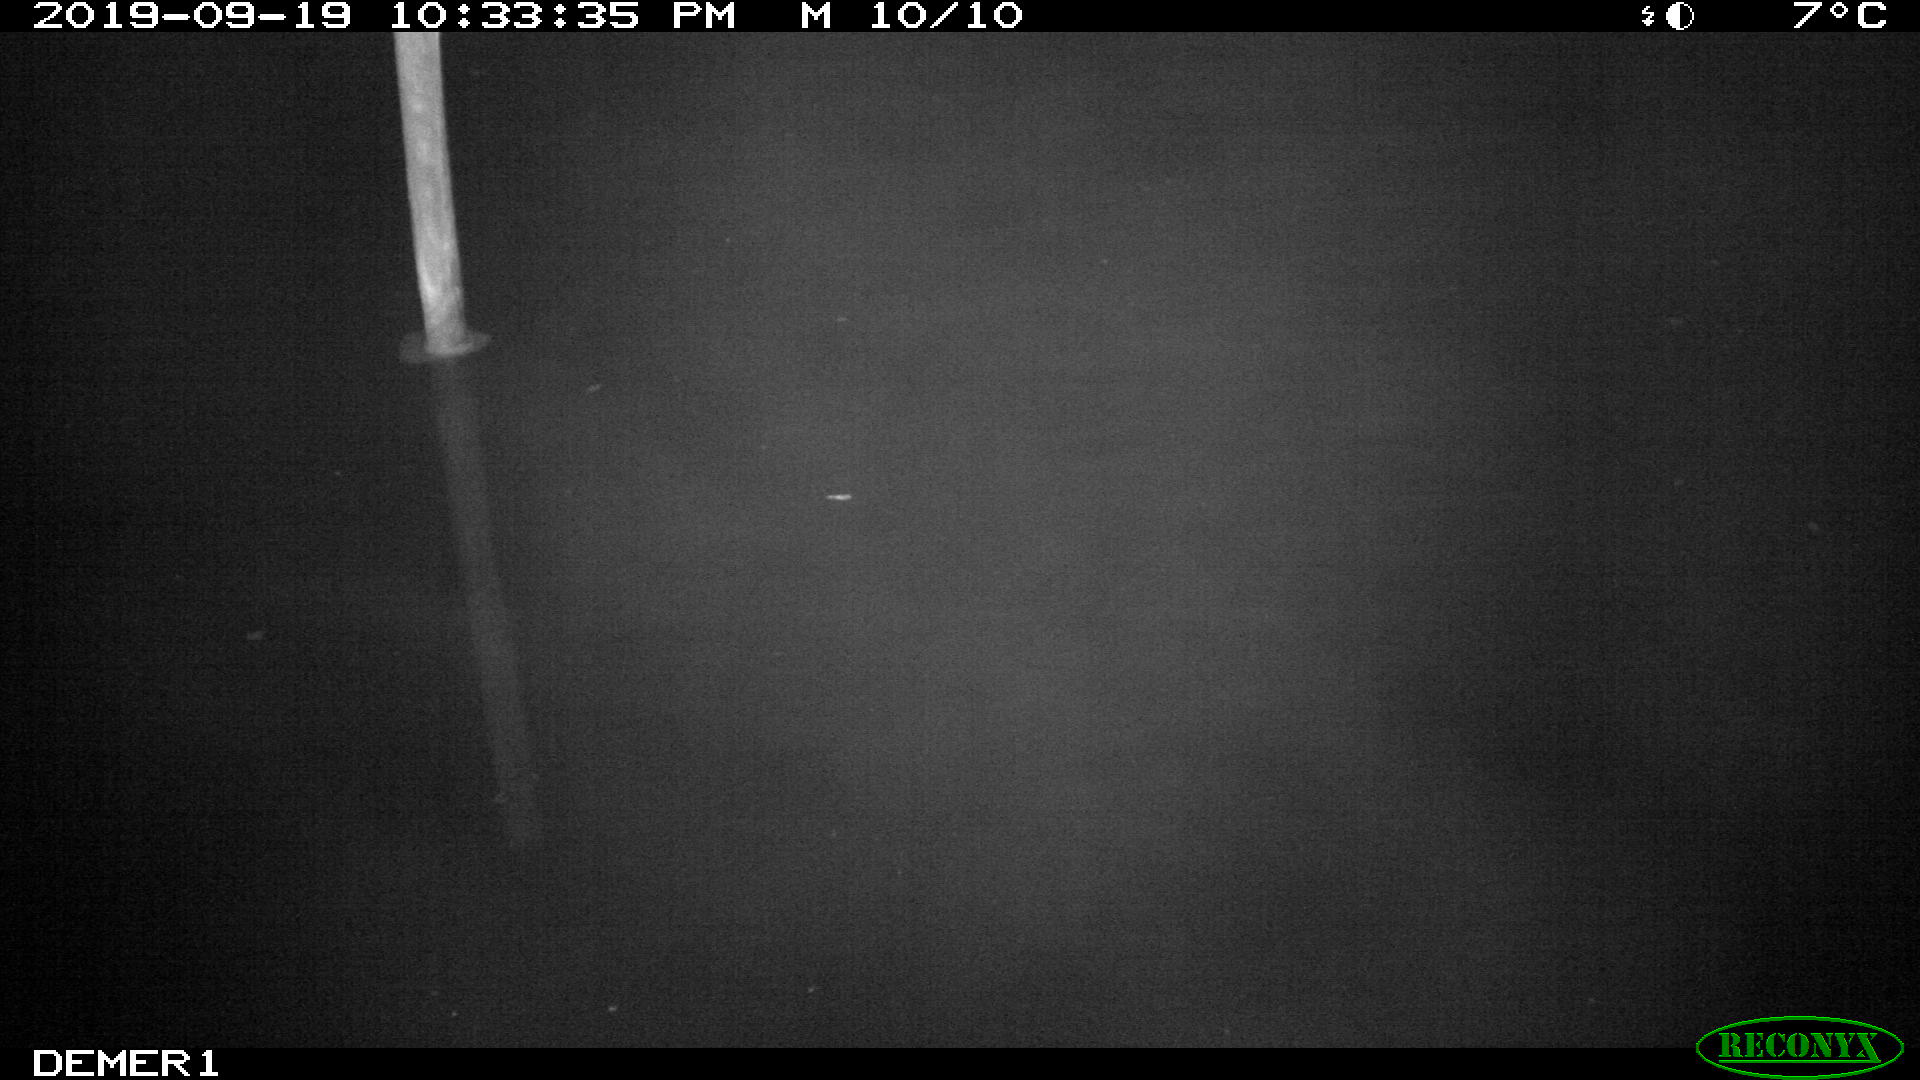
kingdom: Animalia
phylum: Chordata
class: Aves
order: Anseriformes
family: Anatidae
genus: Anas
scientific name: Anas platyrhynchos
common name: Mallard
